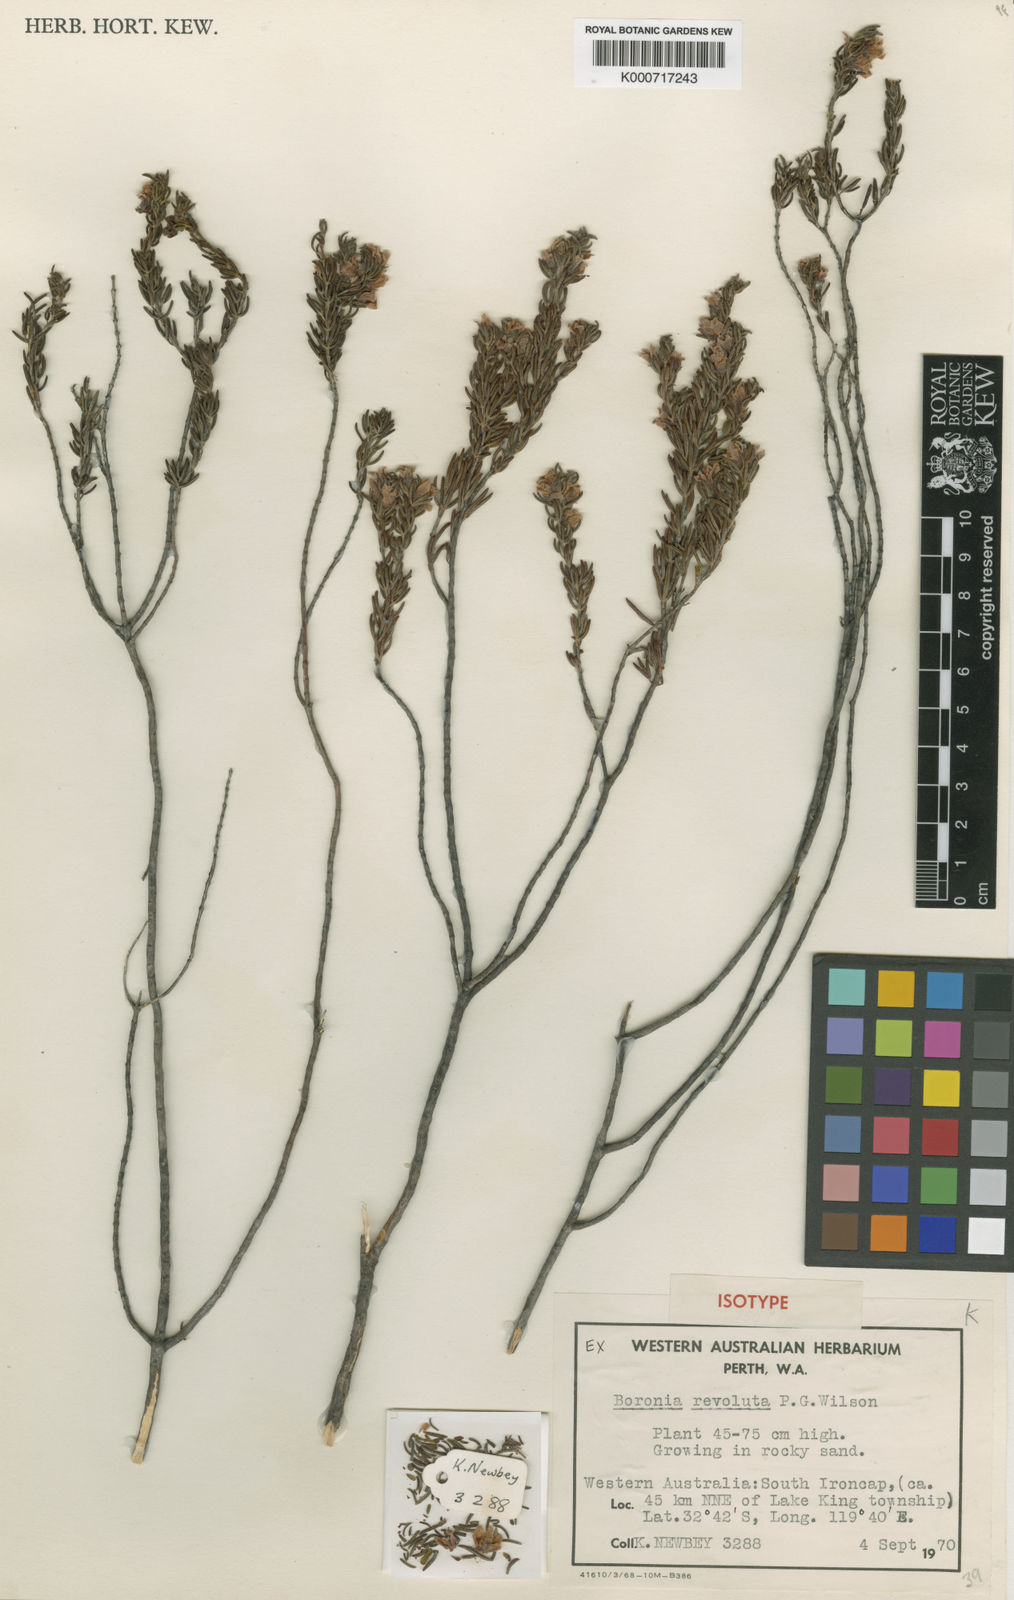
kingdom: Plantae
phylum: Tracheophyta
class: Magnoliopsida
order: Sapindales
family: Rutaceae
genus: Boronia
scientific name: Boronia revoluta
